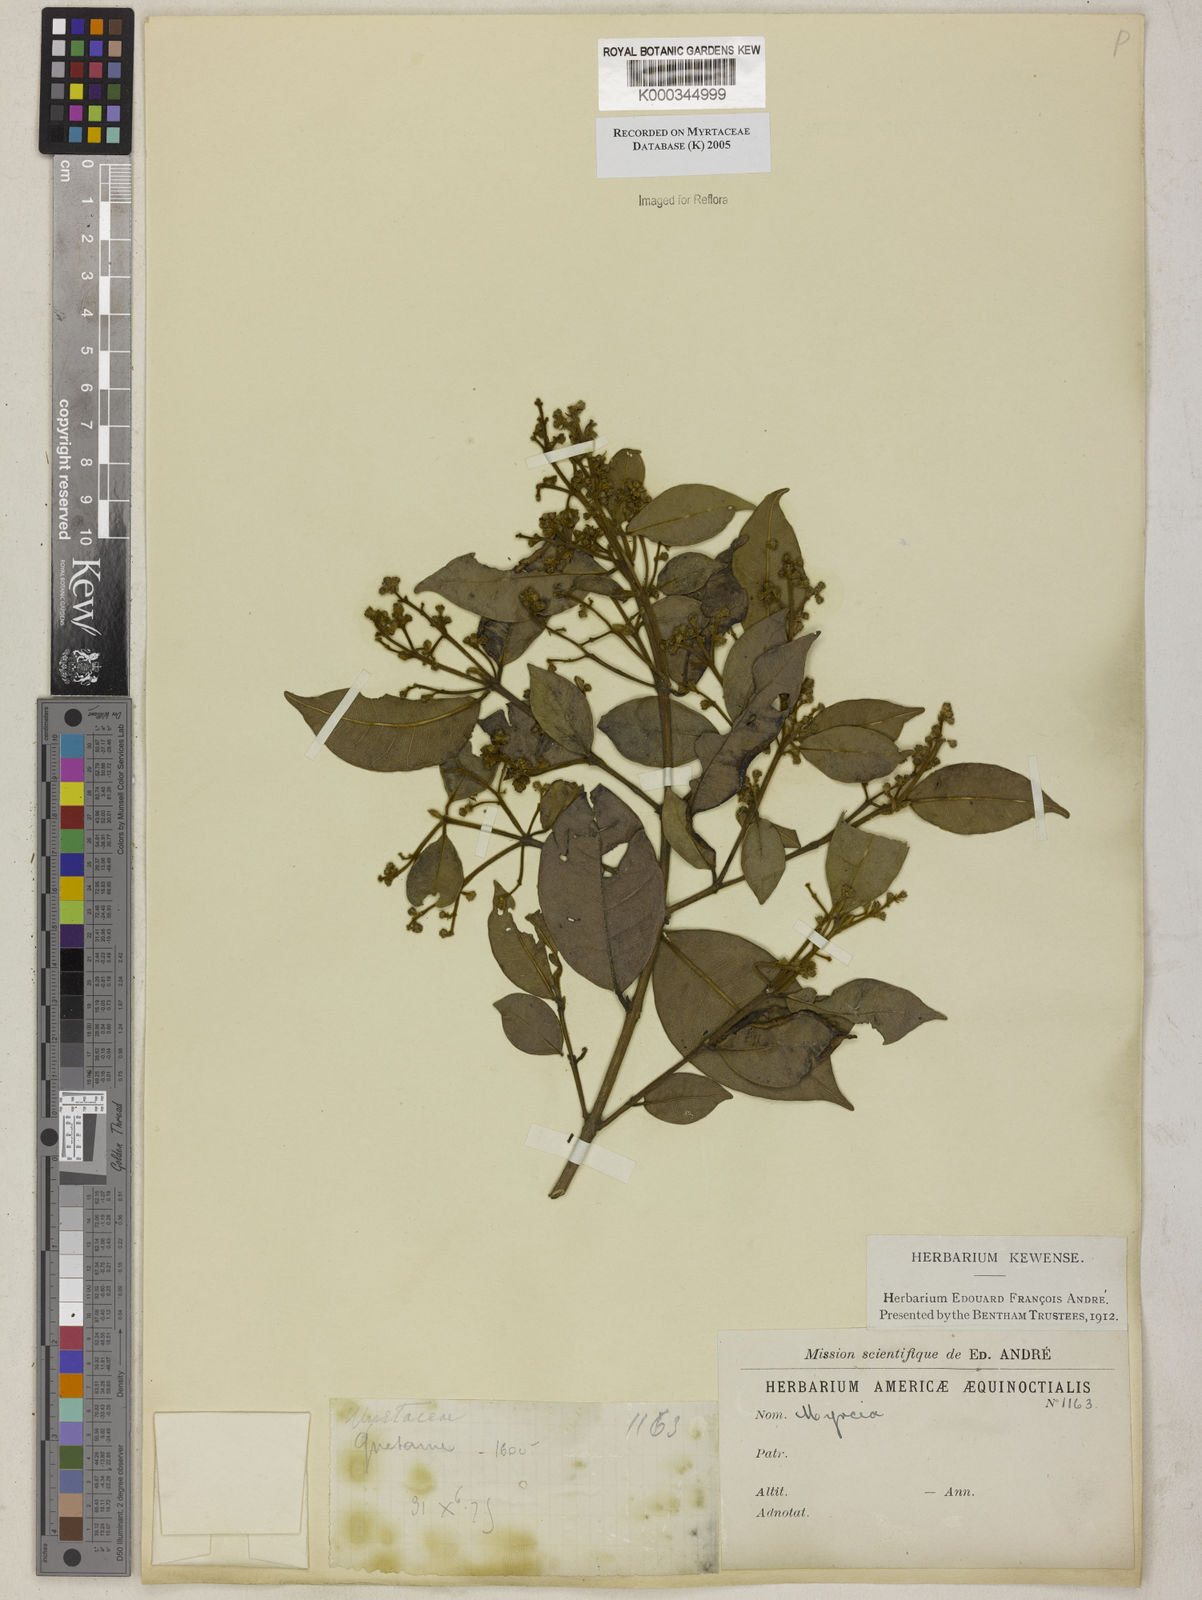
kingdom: Plantae
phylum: Tracheophyta
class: Magnoliopsida
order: Myrtales
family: Myrtaceae
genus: Myrcia
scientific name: Myrcia
